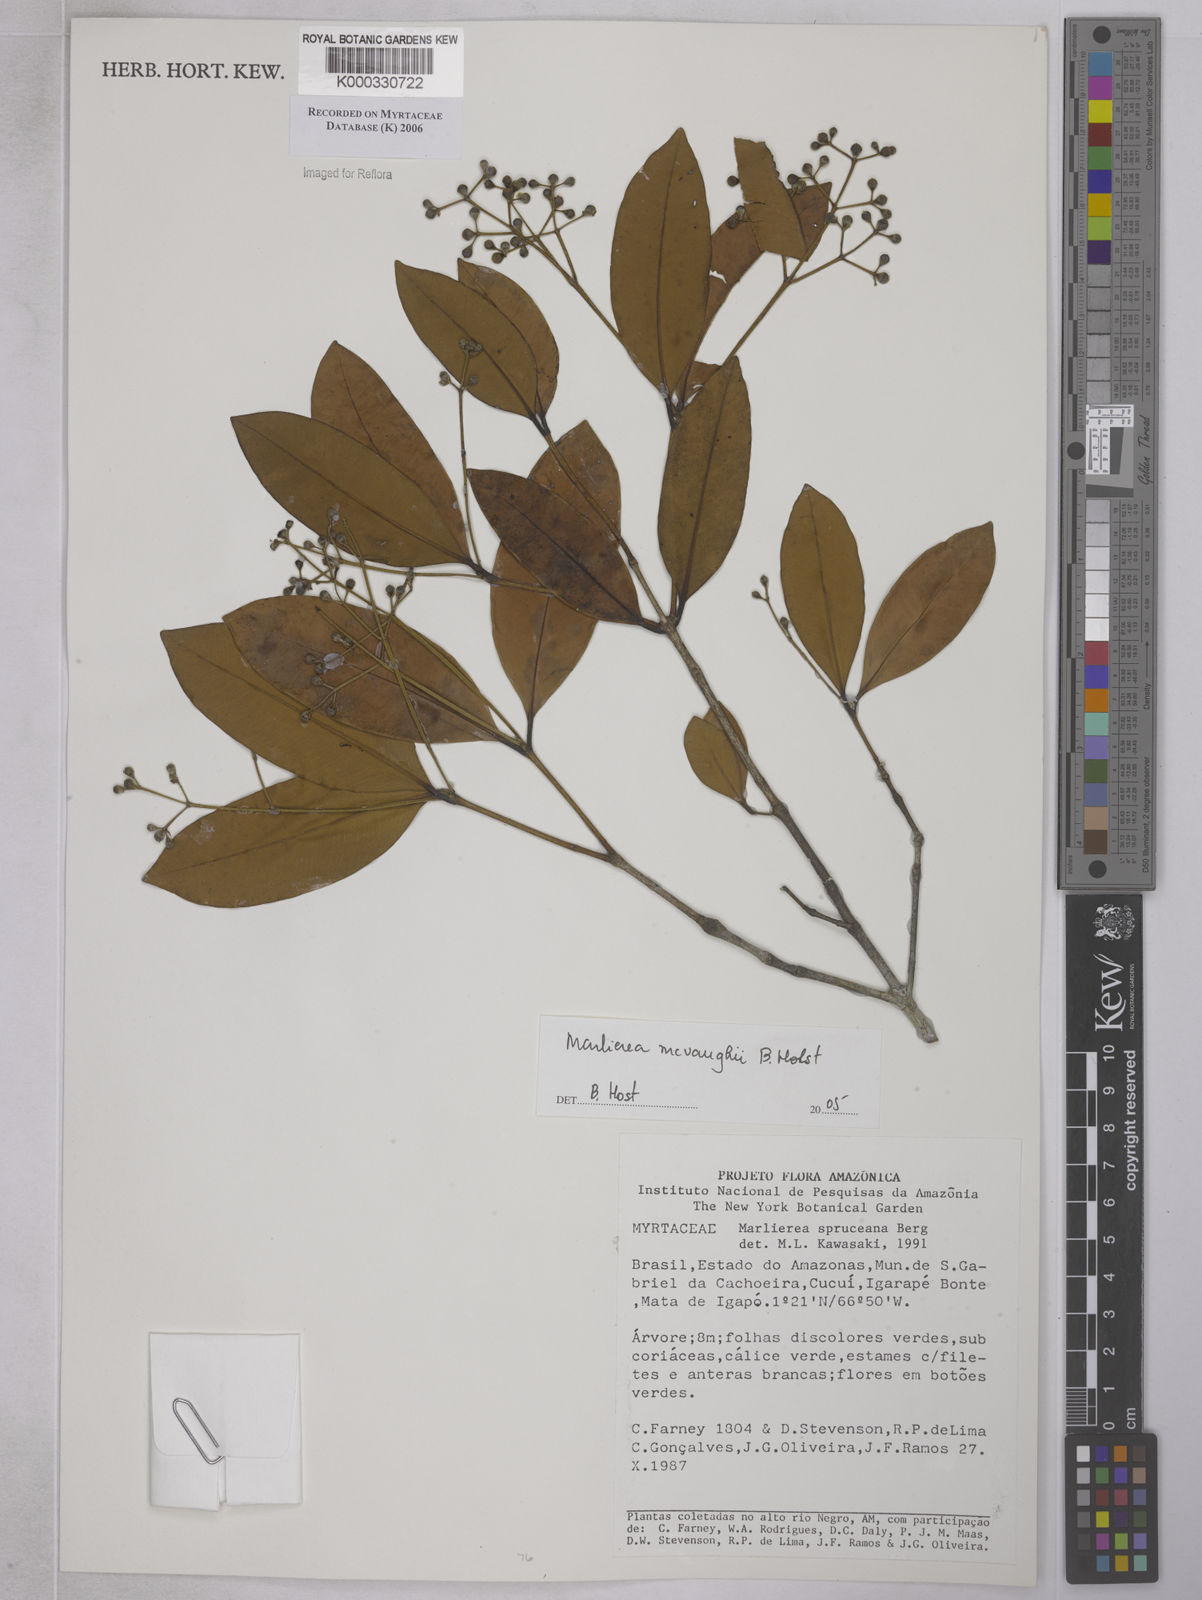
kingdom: Plantae
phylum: Tracheophyta
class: Magnoliopsida
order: Myrtales
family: Myrtaceae
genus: Myrcia
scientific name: Myrcia mcvaughii
